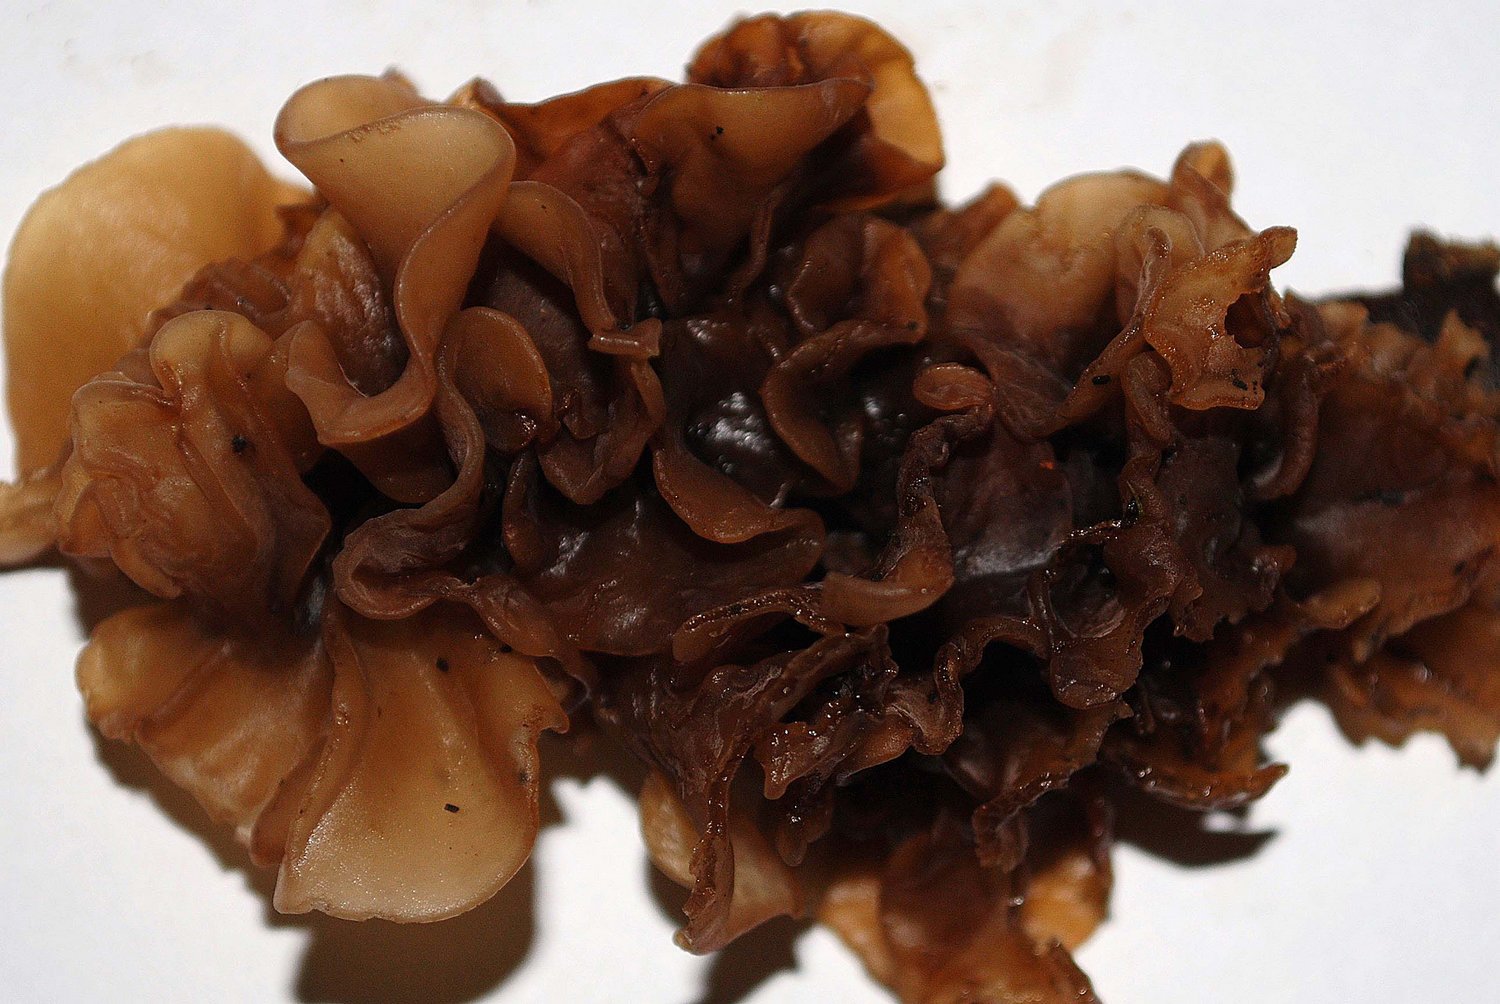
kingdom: Fungi
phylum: Basidiomycota
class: Tremellomycetes
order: Tremellales
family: Tremellaceae
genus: Phaeotremella
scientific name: Phaeotremella
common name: bævresvamp
